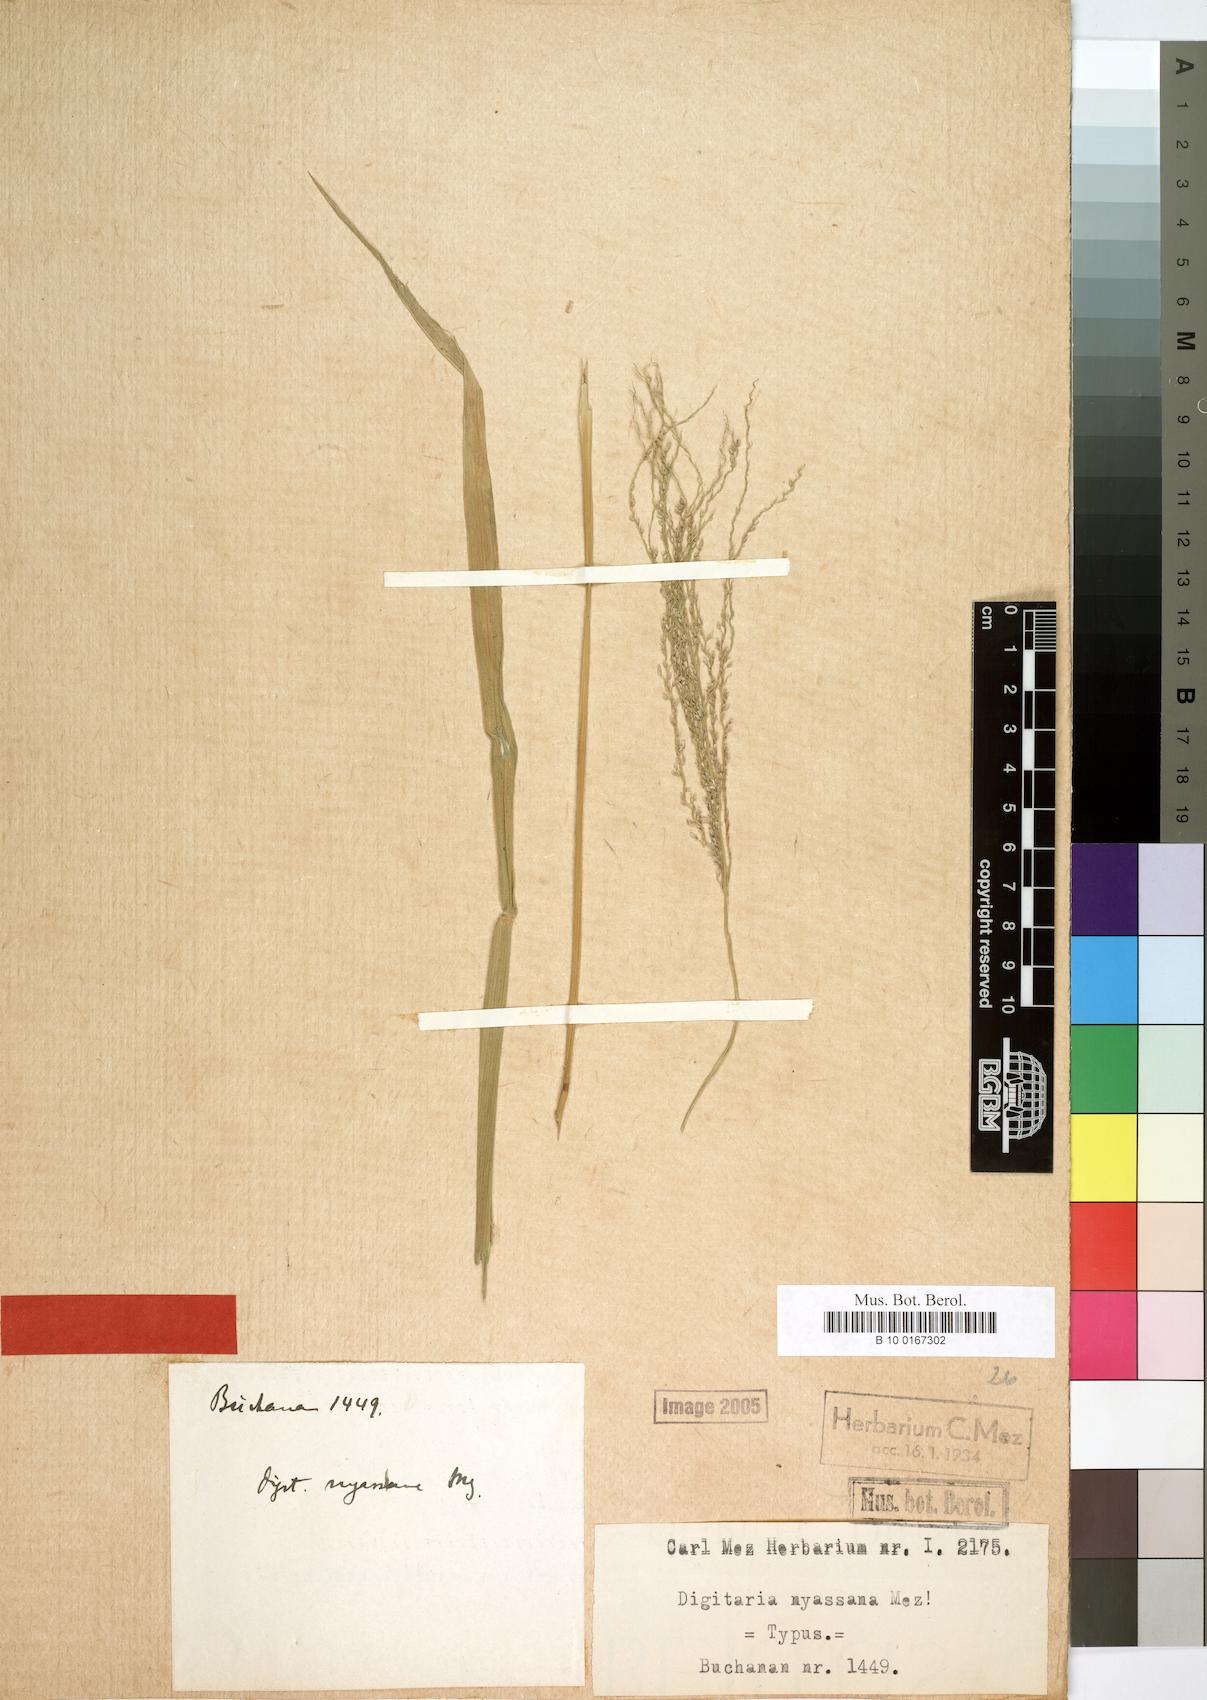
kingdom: Plantae
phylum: Tracheophyta
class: Liliopsida
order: Poales
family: Poaceae
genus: Digitaria
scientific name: Digitaria gazensis
